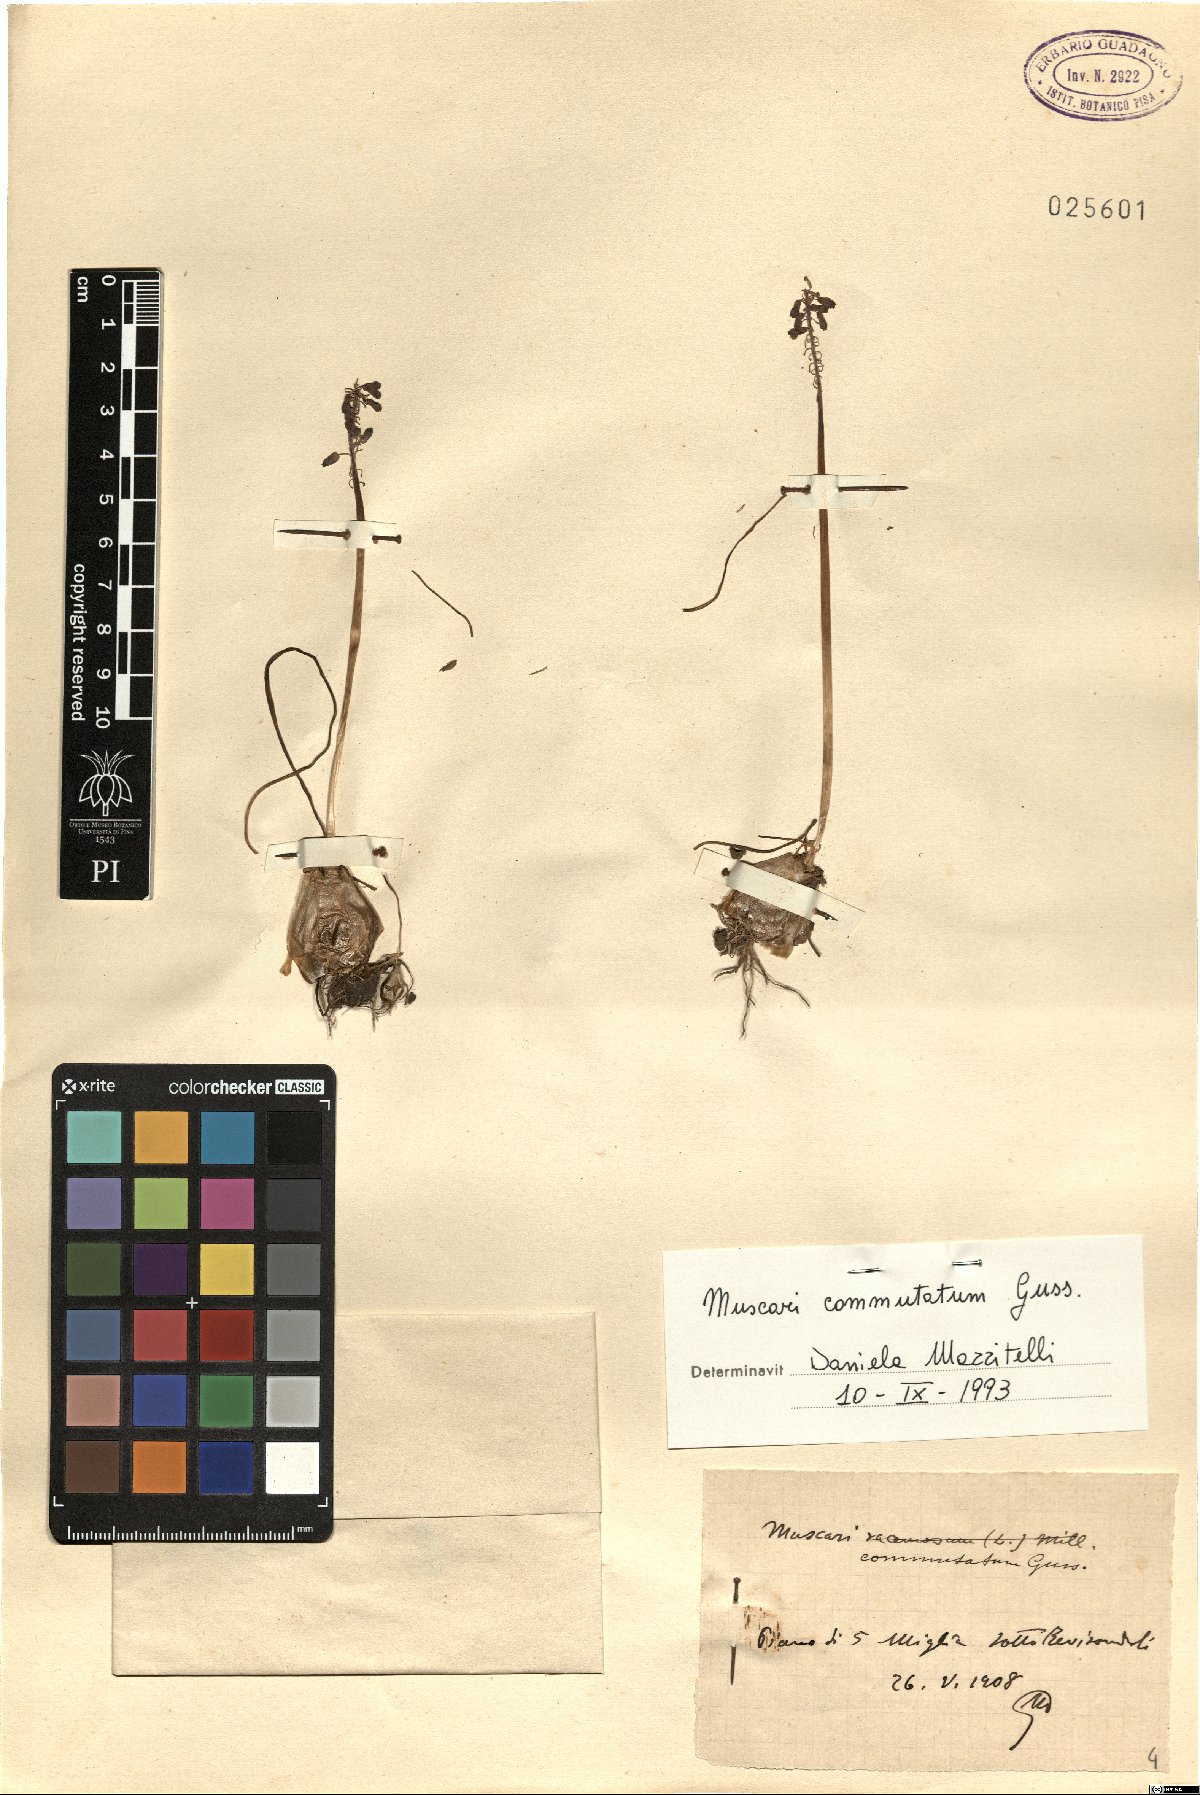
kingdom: Plantae
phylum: Tracheophyta
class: Liliopsida
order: Asparagales
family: Asparagaceae
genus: Muscari
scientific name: Muscari commutatum
